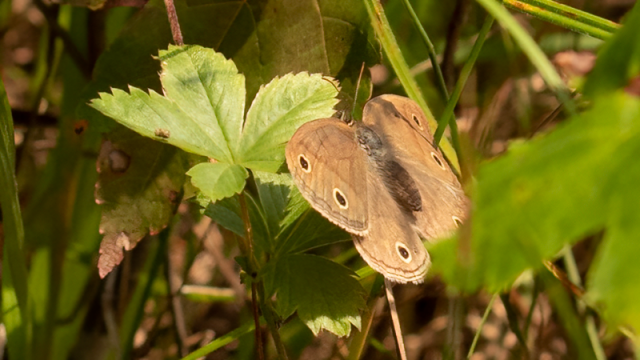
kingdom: Animalia
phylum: Arthropoda
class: Insecta
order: Lepidoptera
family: Nymphalidae
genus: Euptychia
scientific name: Euptychia cymela
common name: Little Wood Satyr
